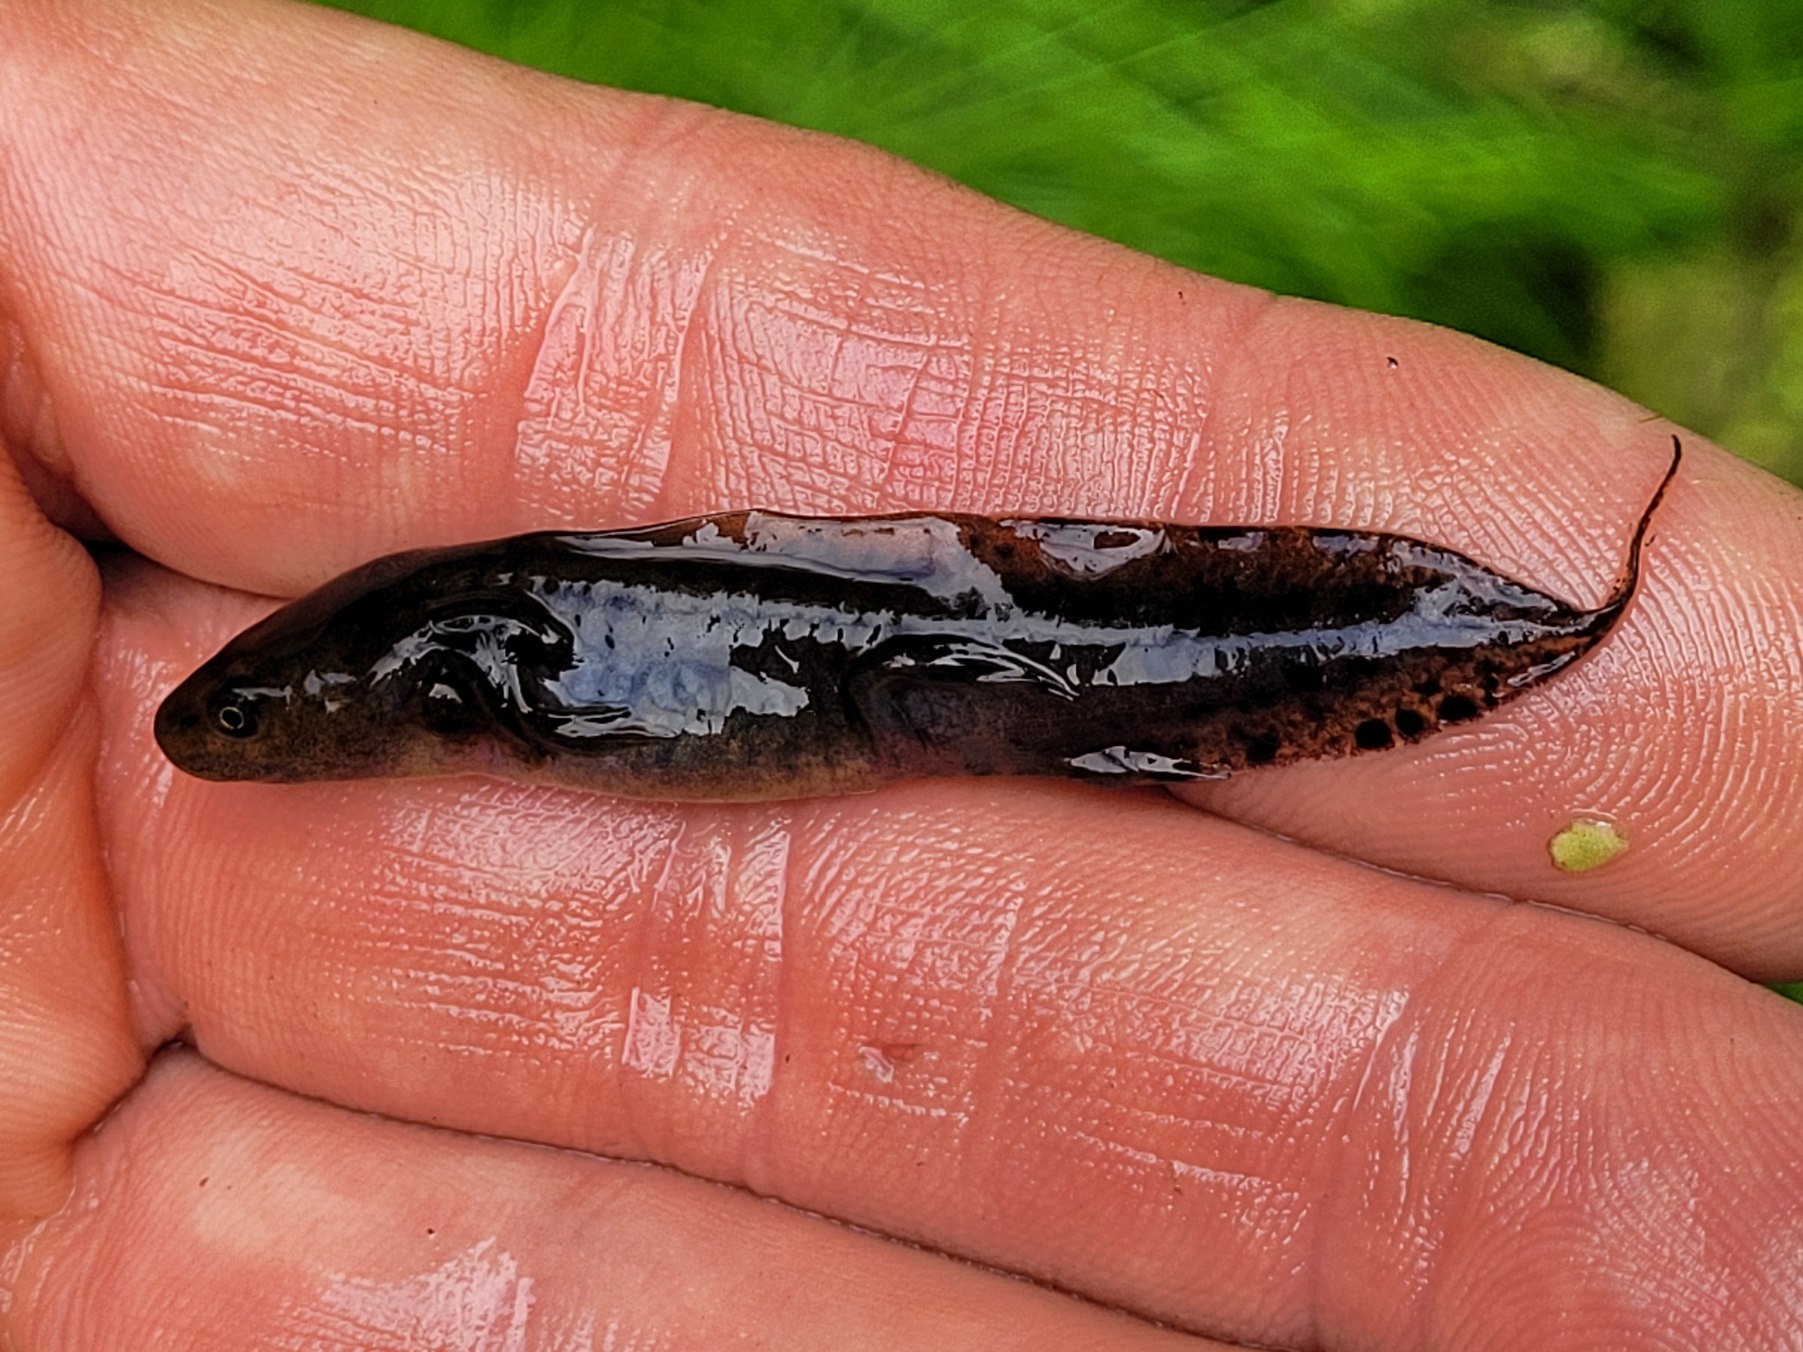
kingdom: Animalia
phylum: Chordata
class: Amphibia
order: Caudata
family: Salamandridae
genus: Triturus
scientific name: Triturus cristatus
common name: Stor vandsalamander
